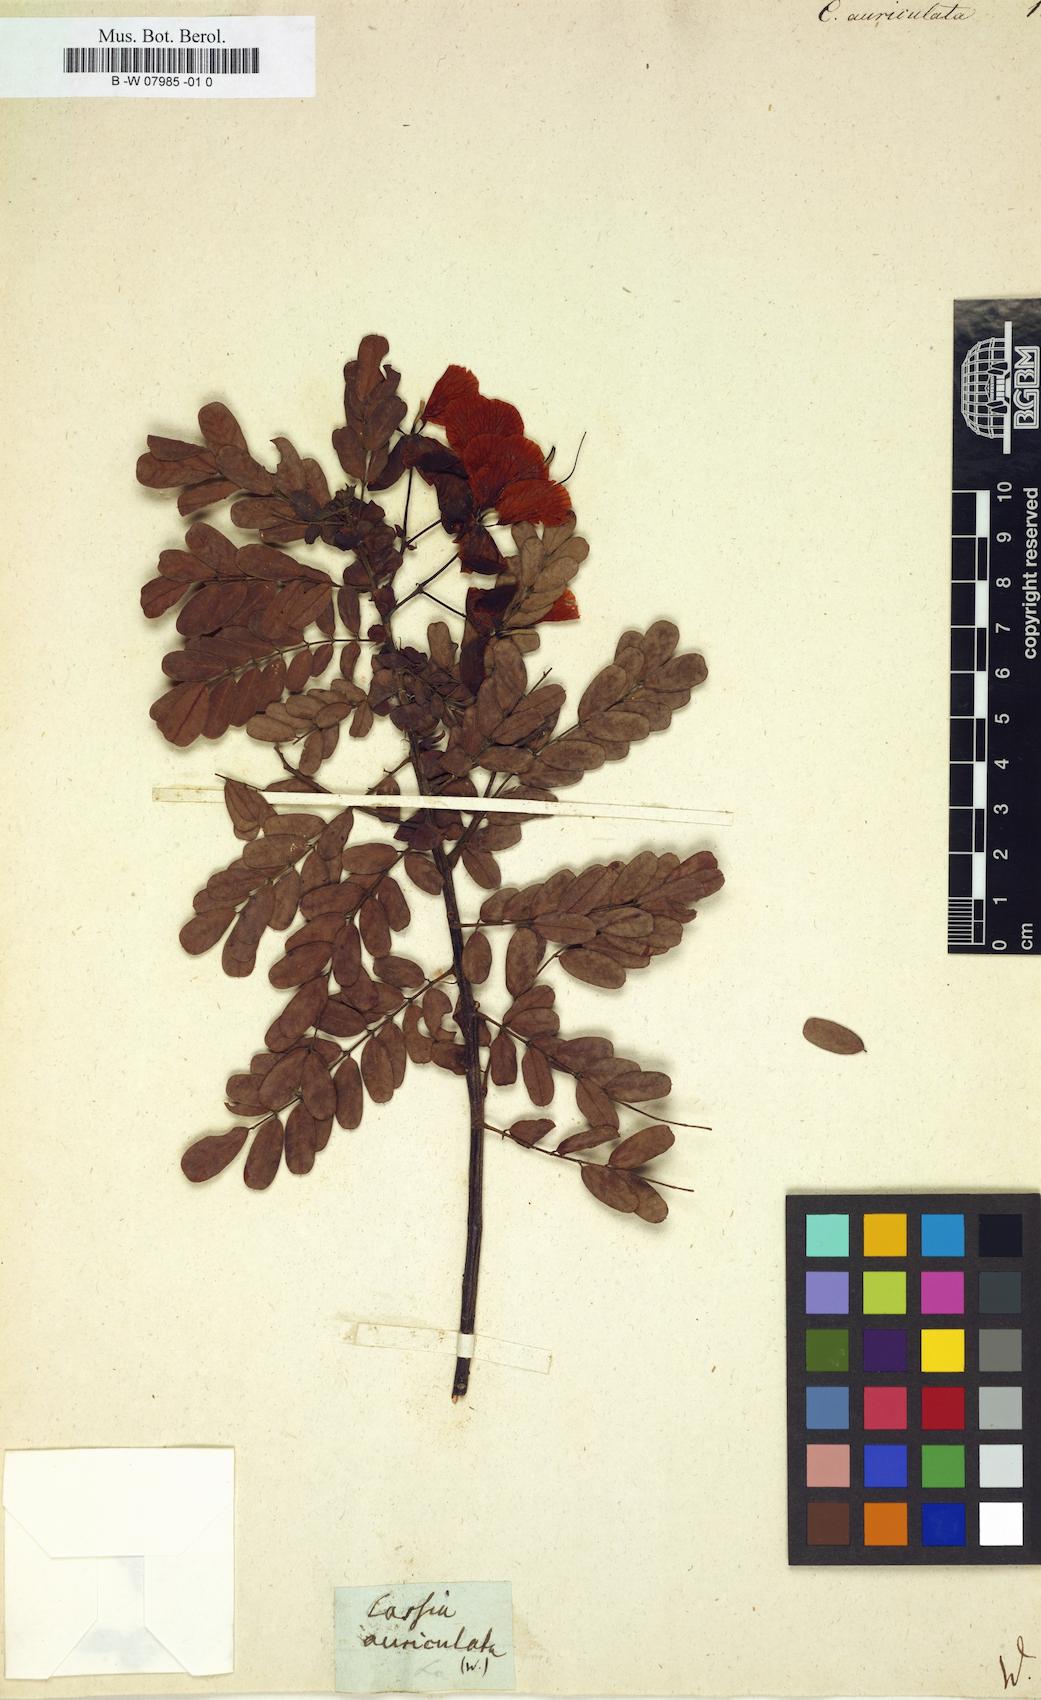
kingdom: Plantae
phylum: Tracheophyta
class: Magnoliopsida
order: Fabales
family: Fabaceae
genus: Senna
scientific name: Senna auriculata
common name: Tanner's cassia
